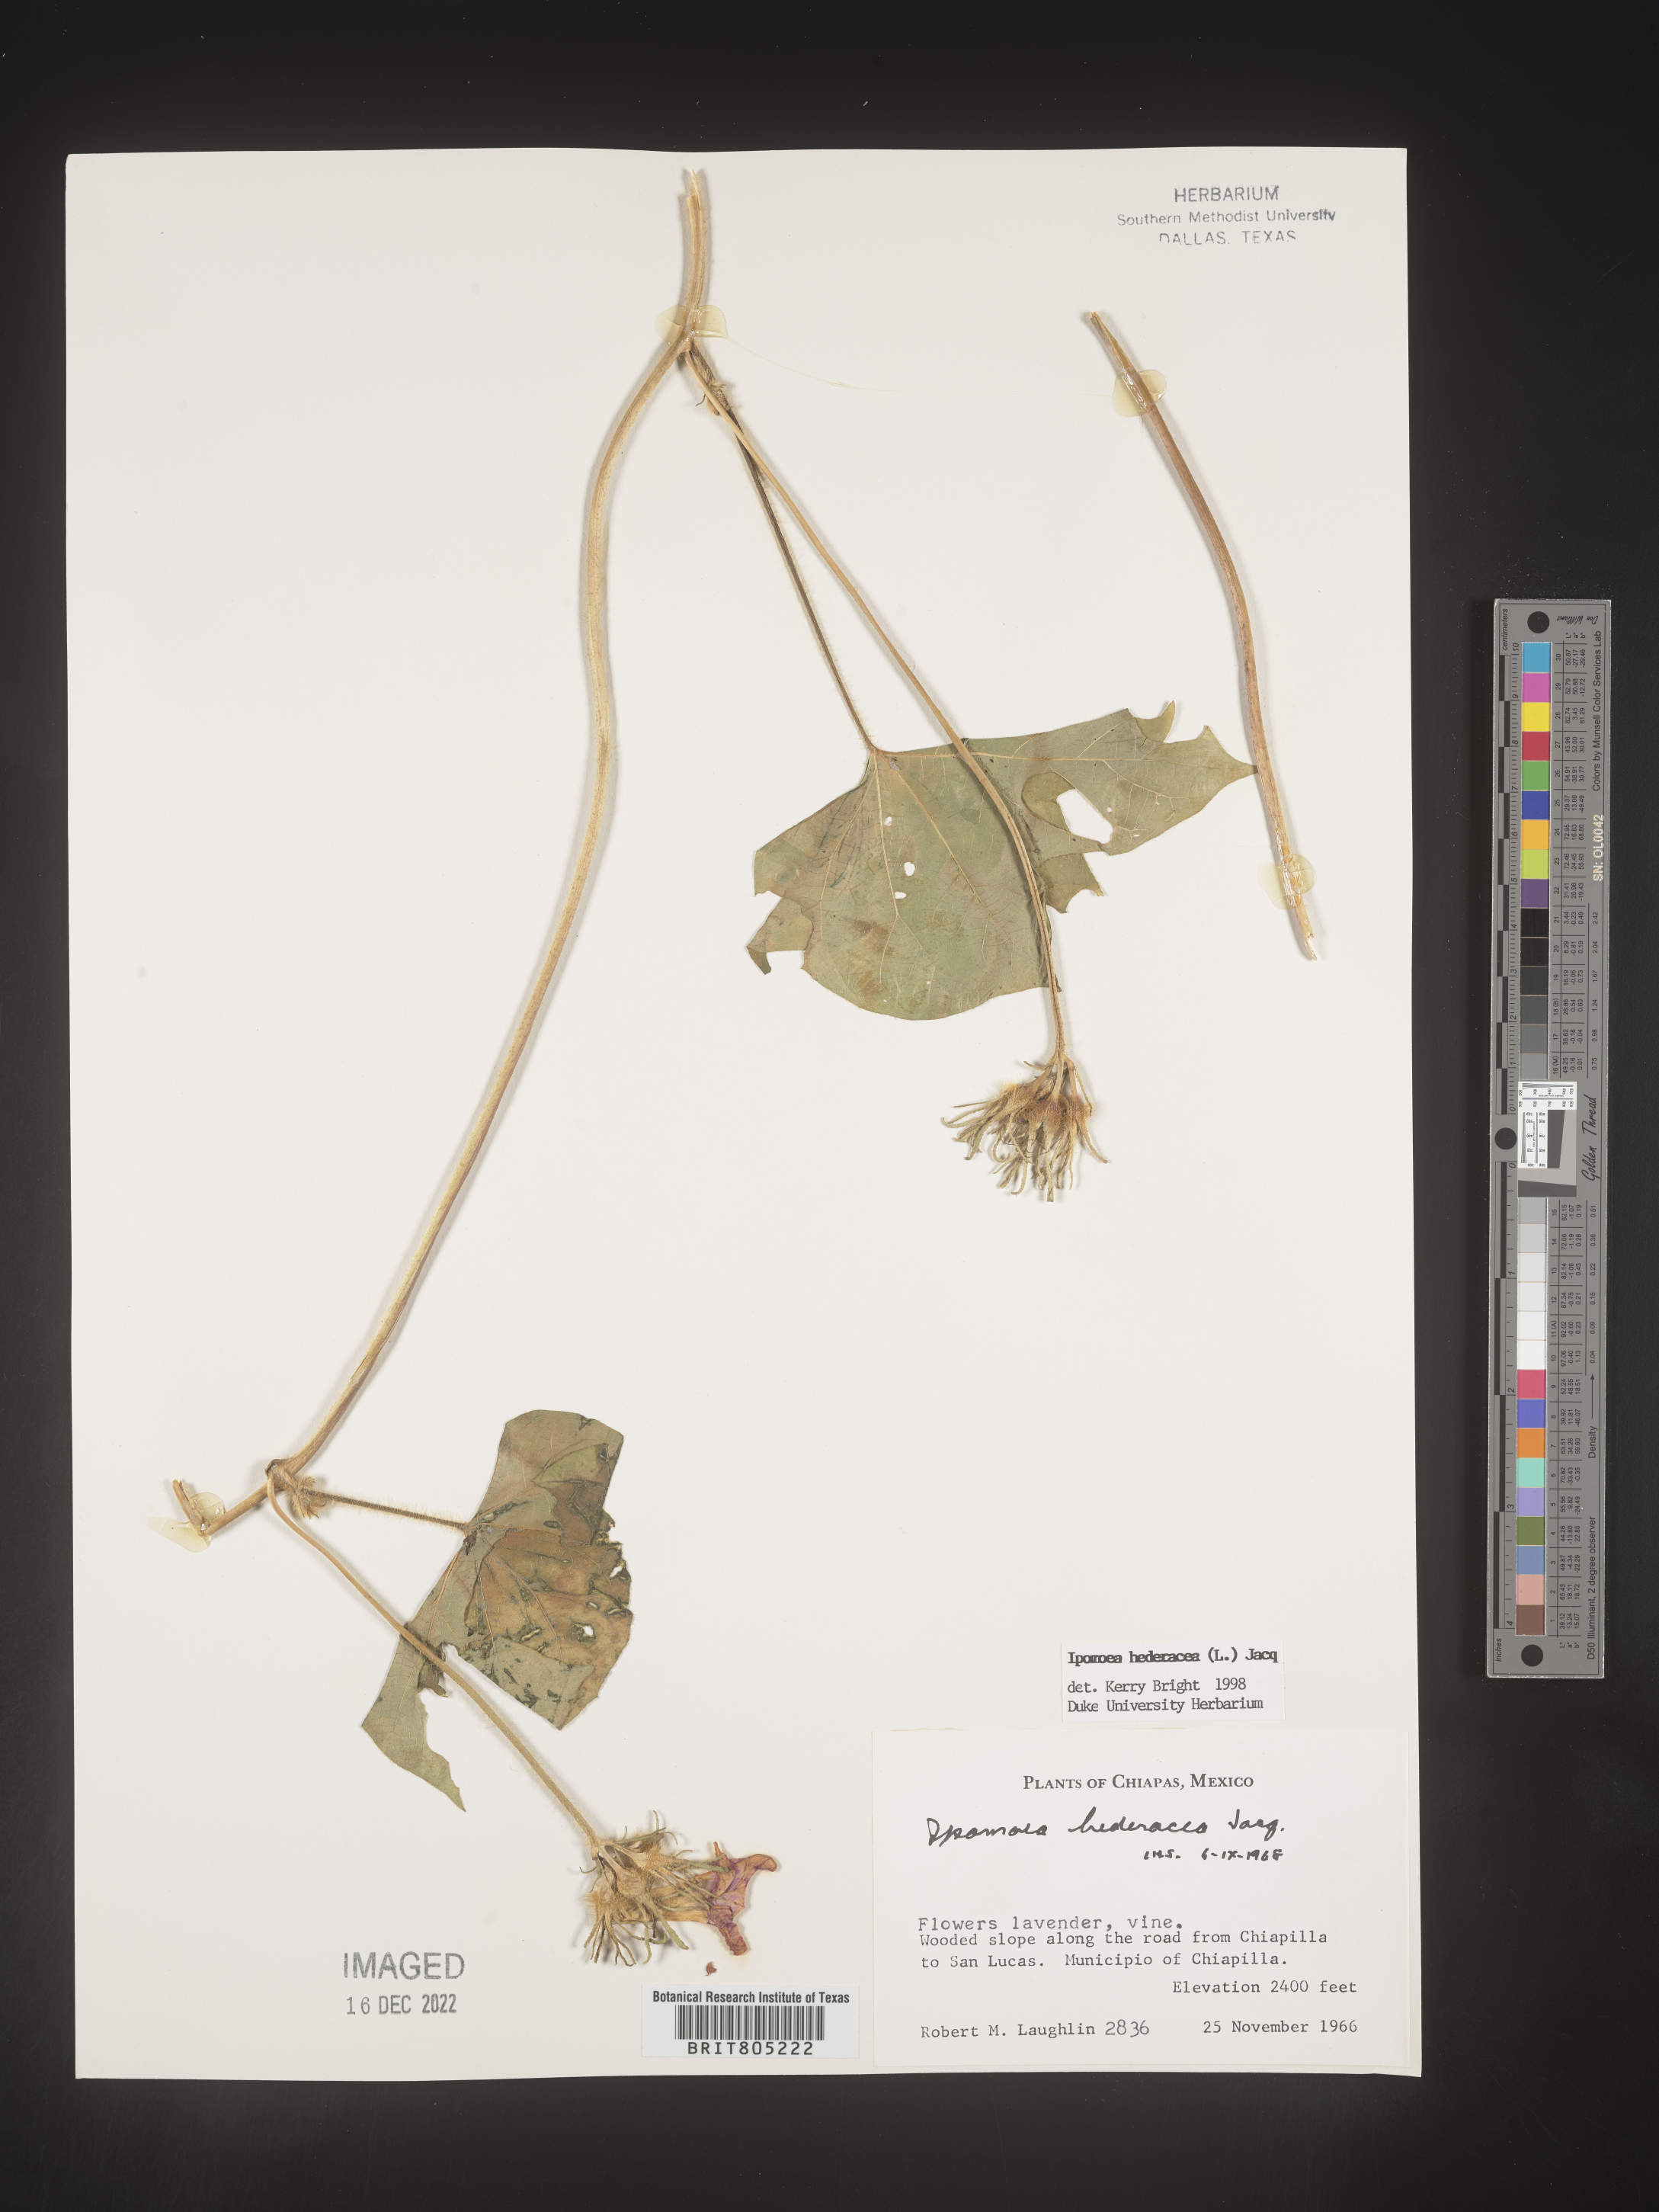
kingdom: Plantae
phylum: Tracheophyta
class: Magnoliopsida
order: Solanales
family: Convolvulaceae
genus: Ipomoea
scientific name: Ipomoea
